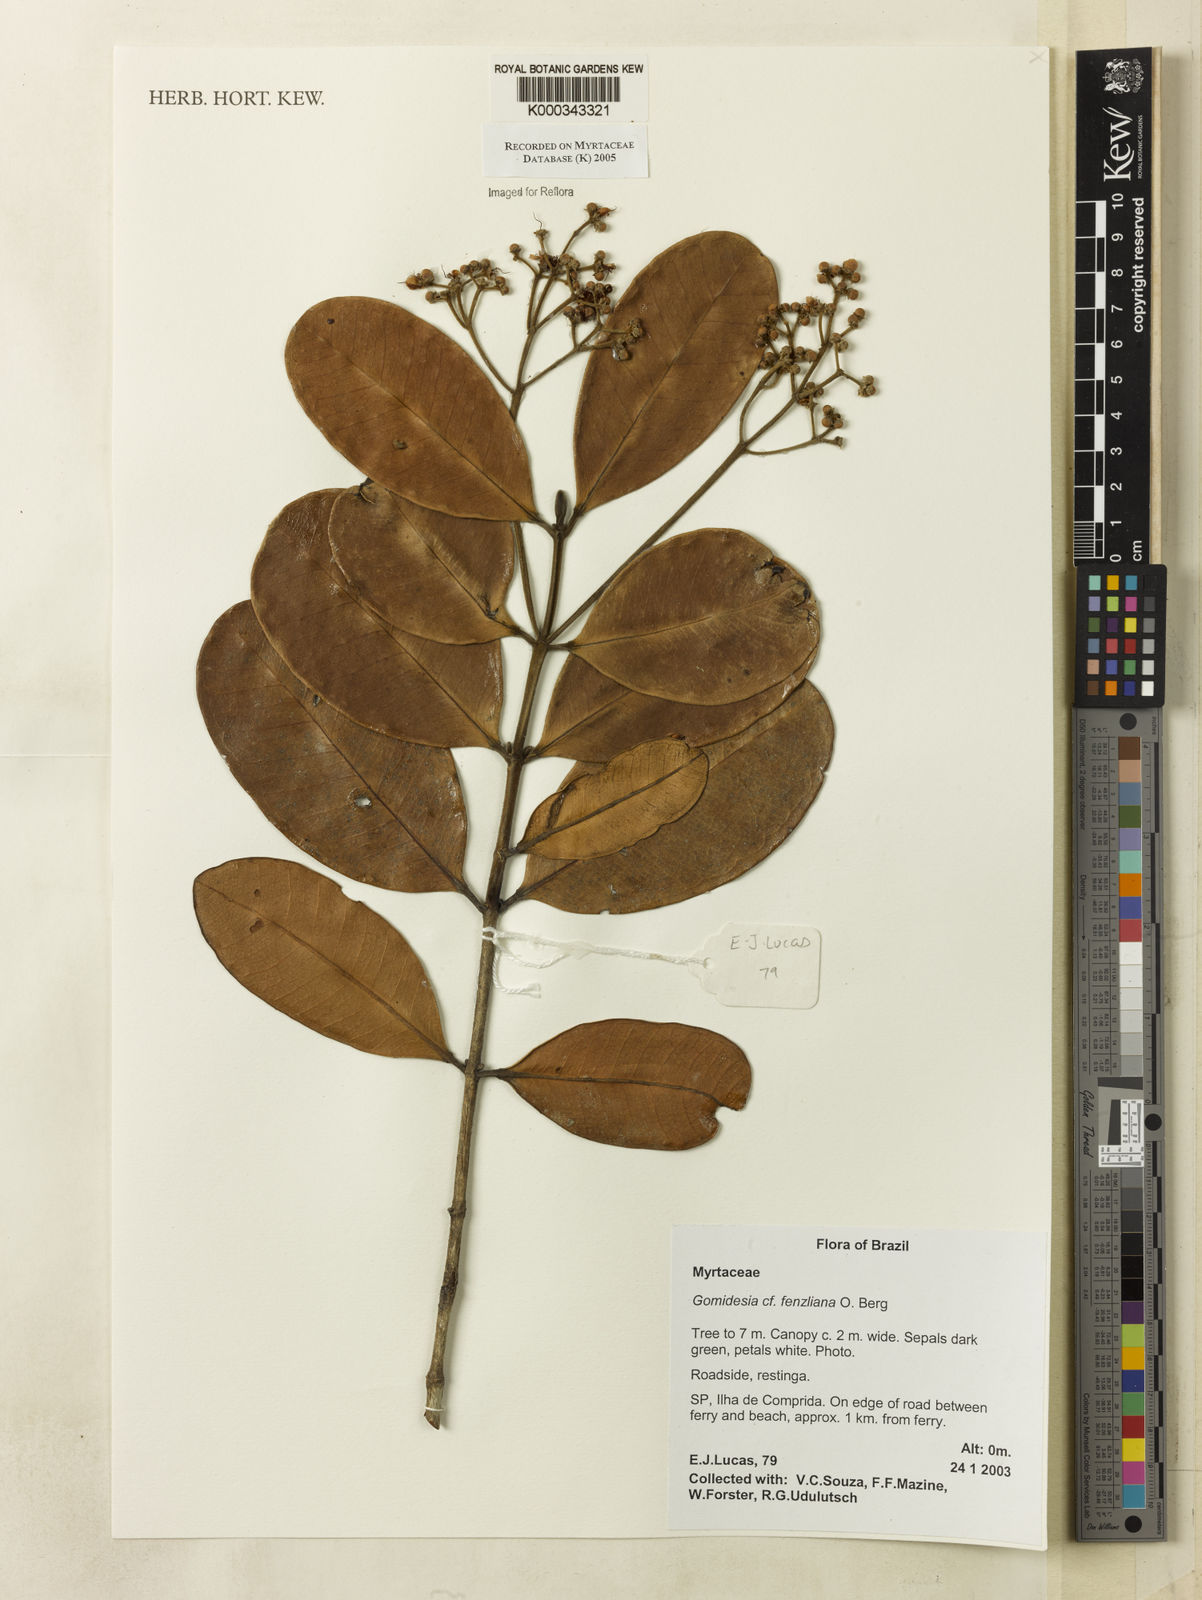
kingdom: Plantae
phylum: Tracheophyta
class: Magnoliopsida
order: Myrtales
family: Myrtaceae
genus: Myrcia
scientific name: Myrcia ilheosensis
